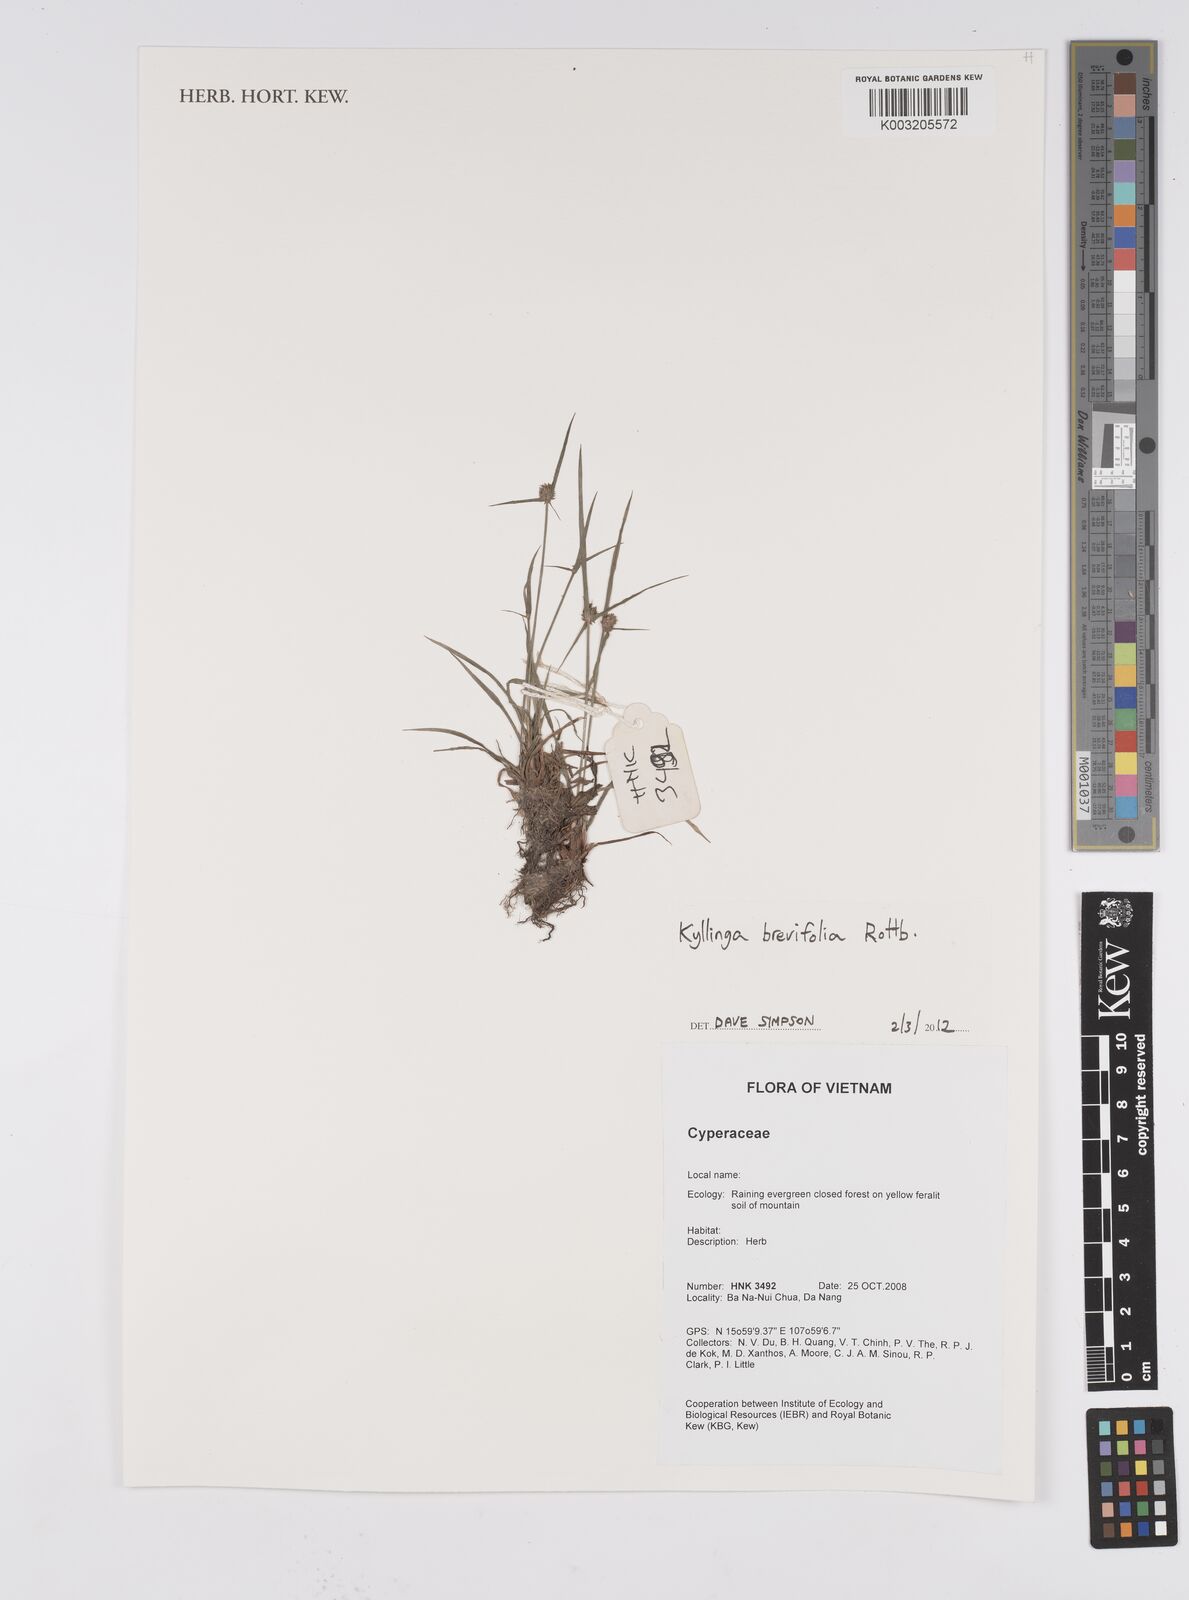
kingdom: Plantae
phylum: Tracheophyta
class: Liliopsida
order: Poales
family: Cyperaceae
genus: Cyperus
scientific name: Cyperus brevifolius
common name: Globe kyllinga
